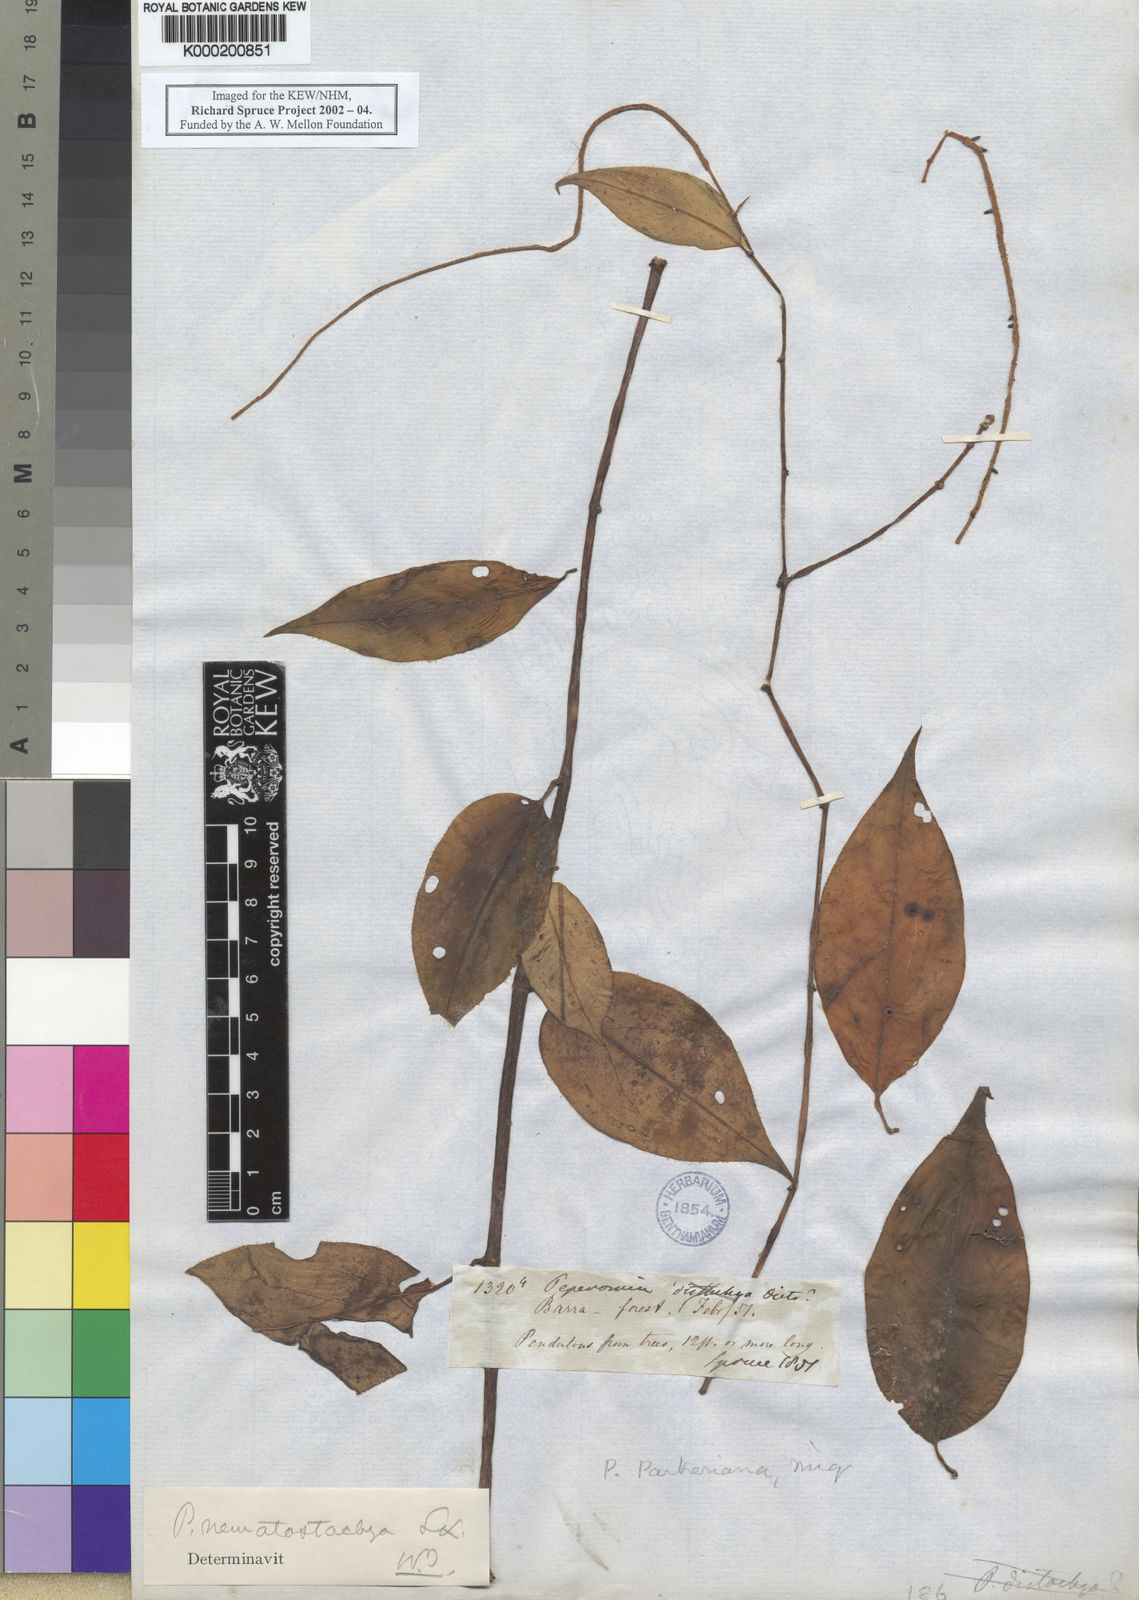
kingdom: Plantae
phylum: Tracheophyta
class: Magnoliopsida
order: Piperales
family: Piperaceae
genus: Peperomia
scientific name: Peperomia macrostachyos
